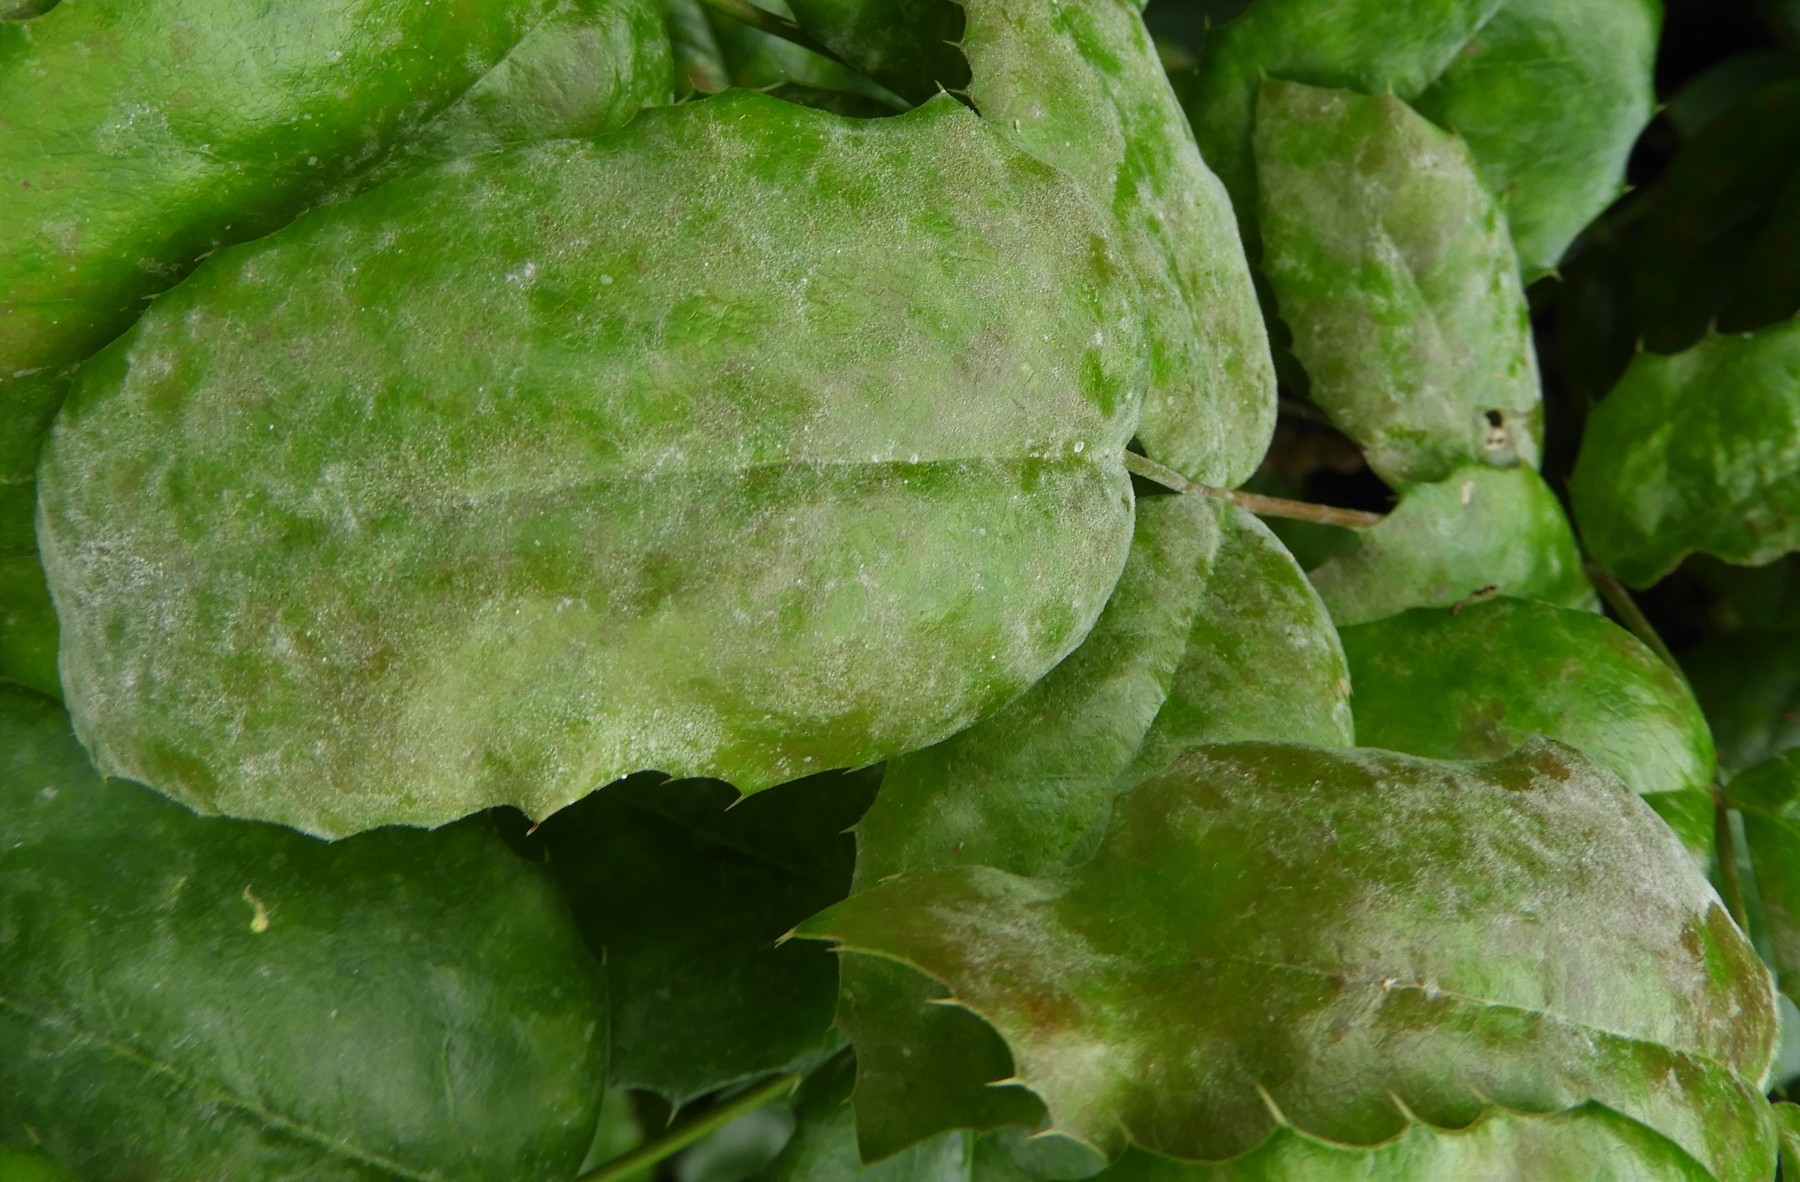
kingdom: Fungi
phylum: Ascomycota
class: Leotiomycetes
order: Helotiales
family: Erysiphaceae
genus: Erysiphe
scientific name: Erysiphe berberidis
